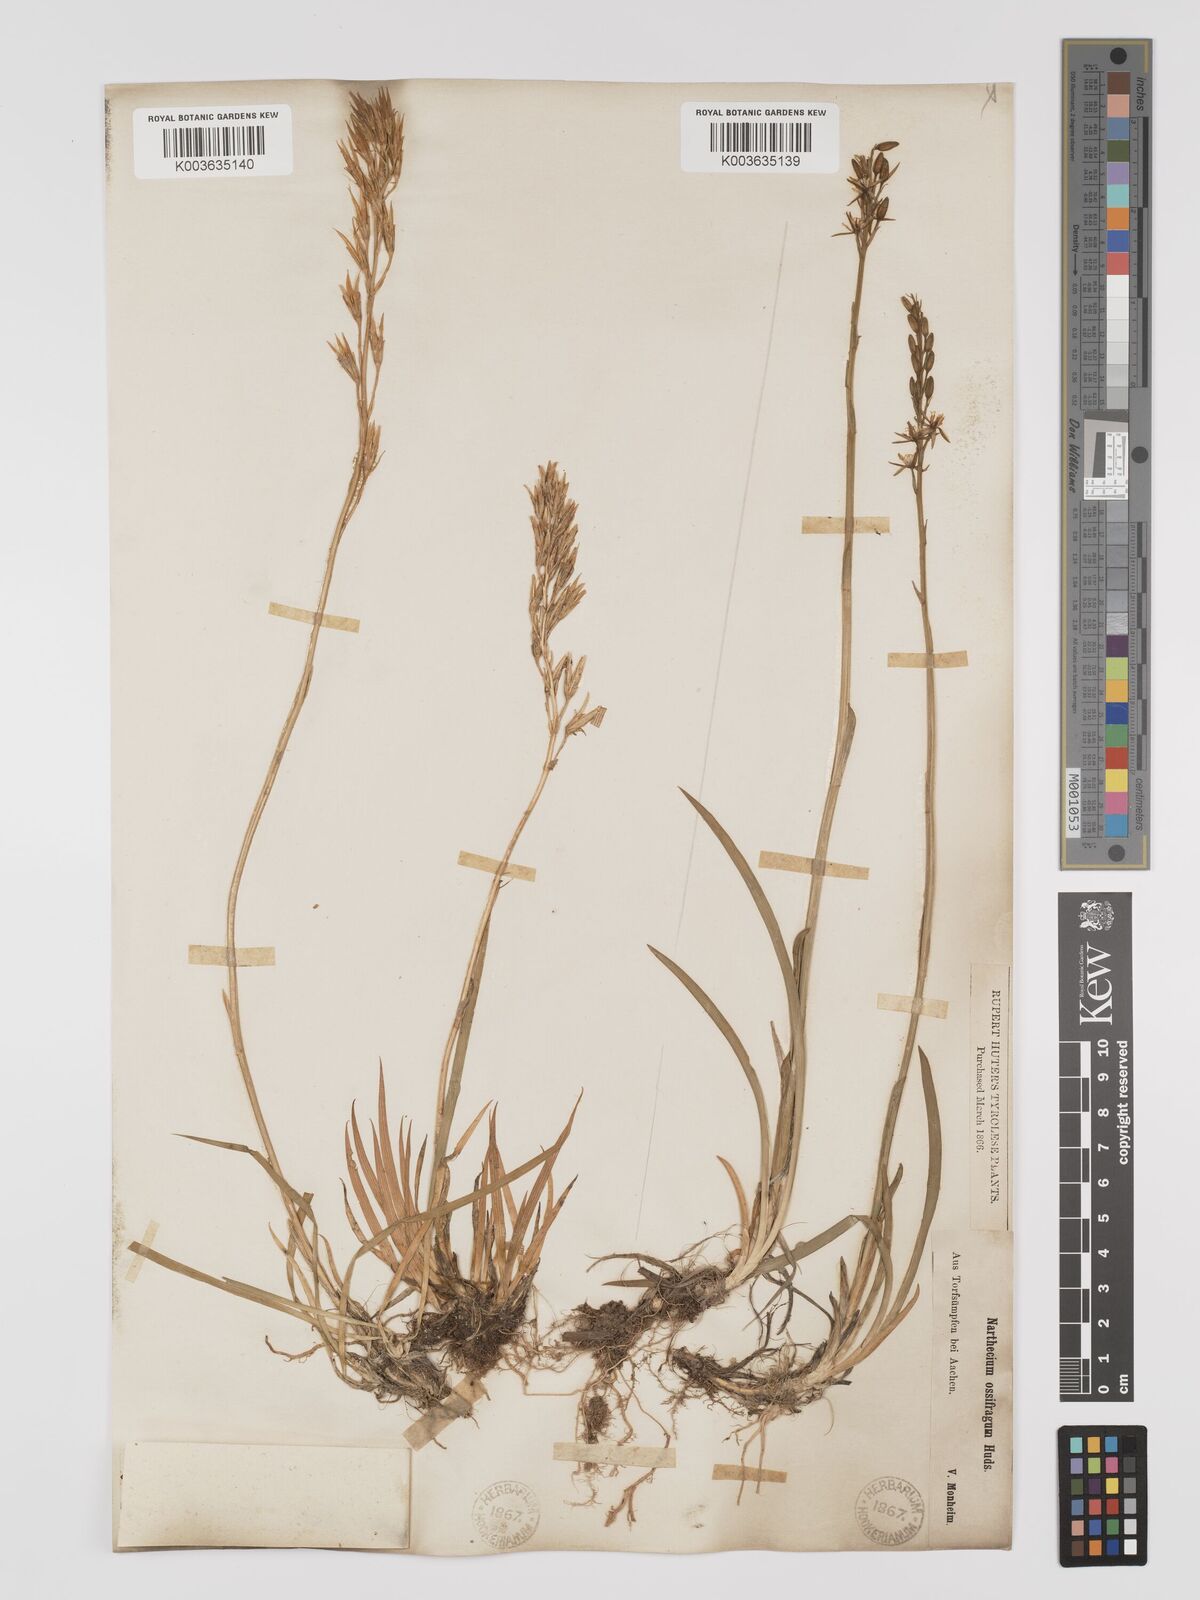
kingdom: Plantae
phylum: Tracheophyta
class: Liliopsida
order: Dioscoreales
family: Nartheciaceae
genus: Narthecium
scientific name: Narthecium ossifragum
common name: Bog asphodel
